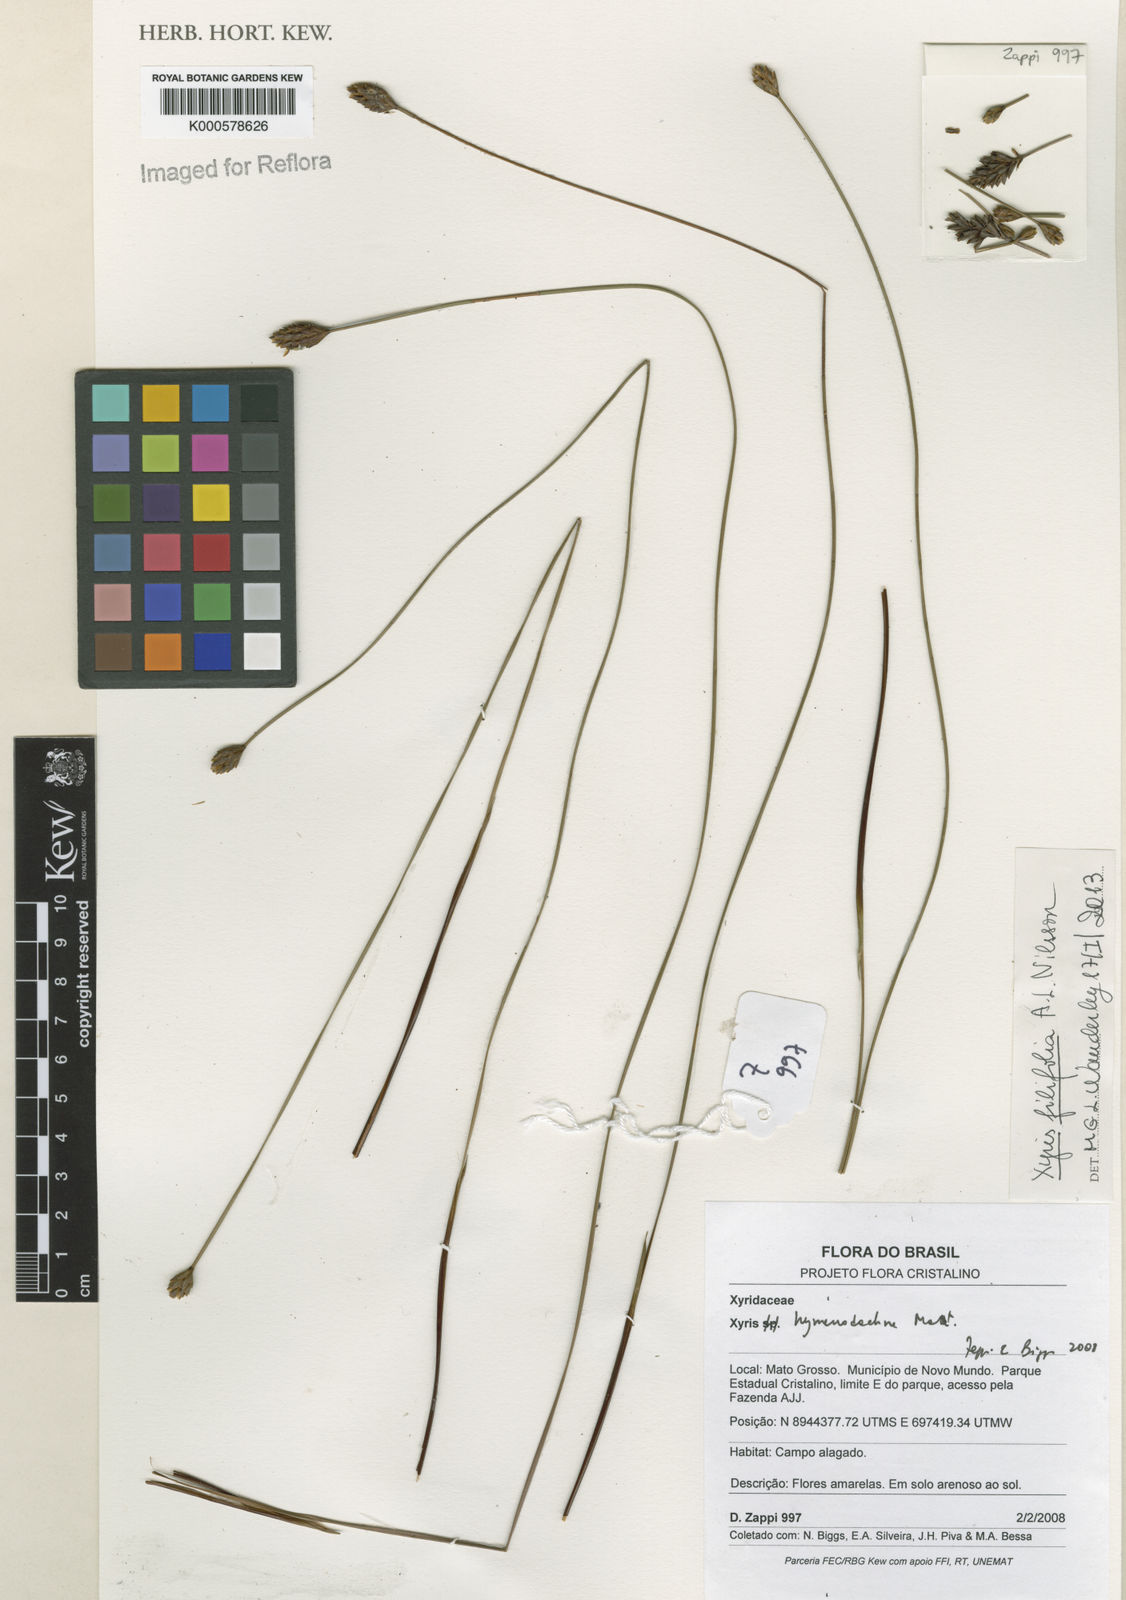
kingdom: Plantae
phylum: Tracheophyta
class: Liliopsida
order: Poales
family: Xyridaceae
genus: Xyris
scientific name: Xyris hymenachne
